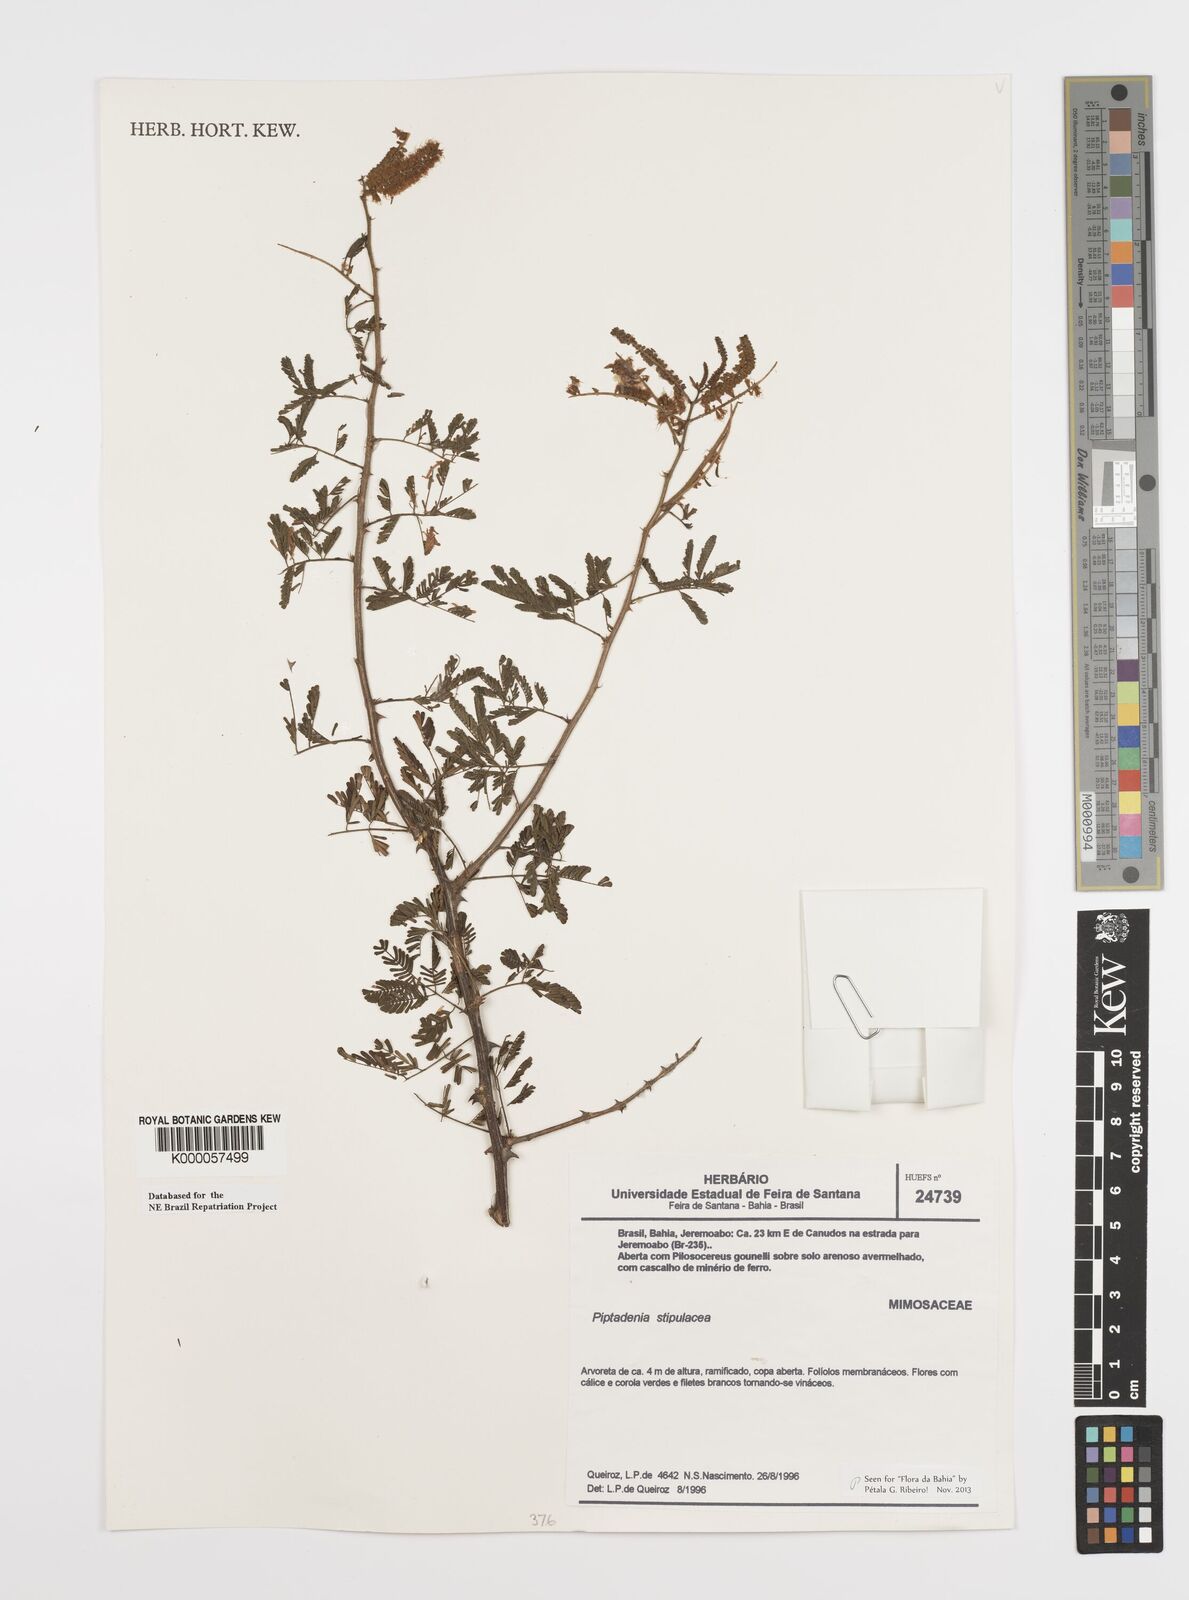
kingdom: Plantae
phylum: Tracheophyta
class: Magnoliopsida
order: Fabales
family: Fabaceae
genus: Piptadenia
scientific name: Piptadenia retusa
